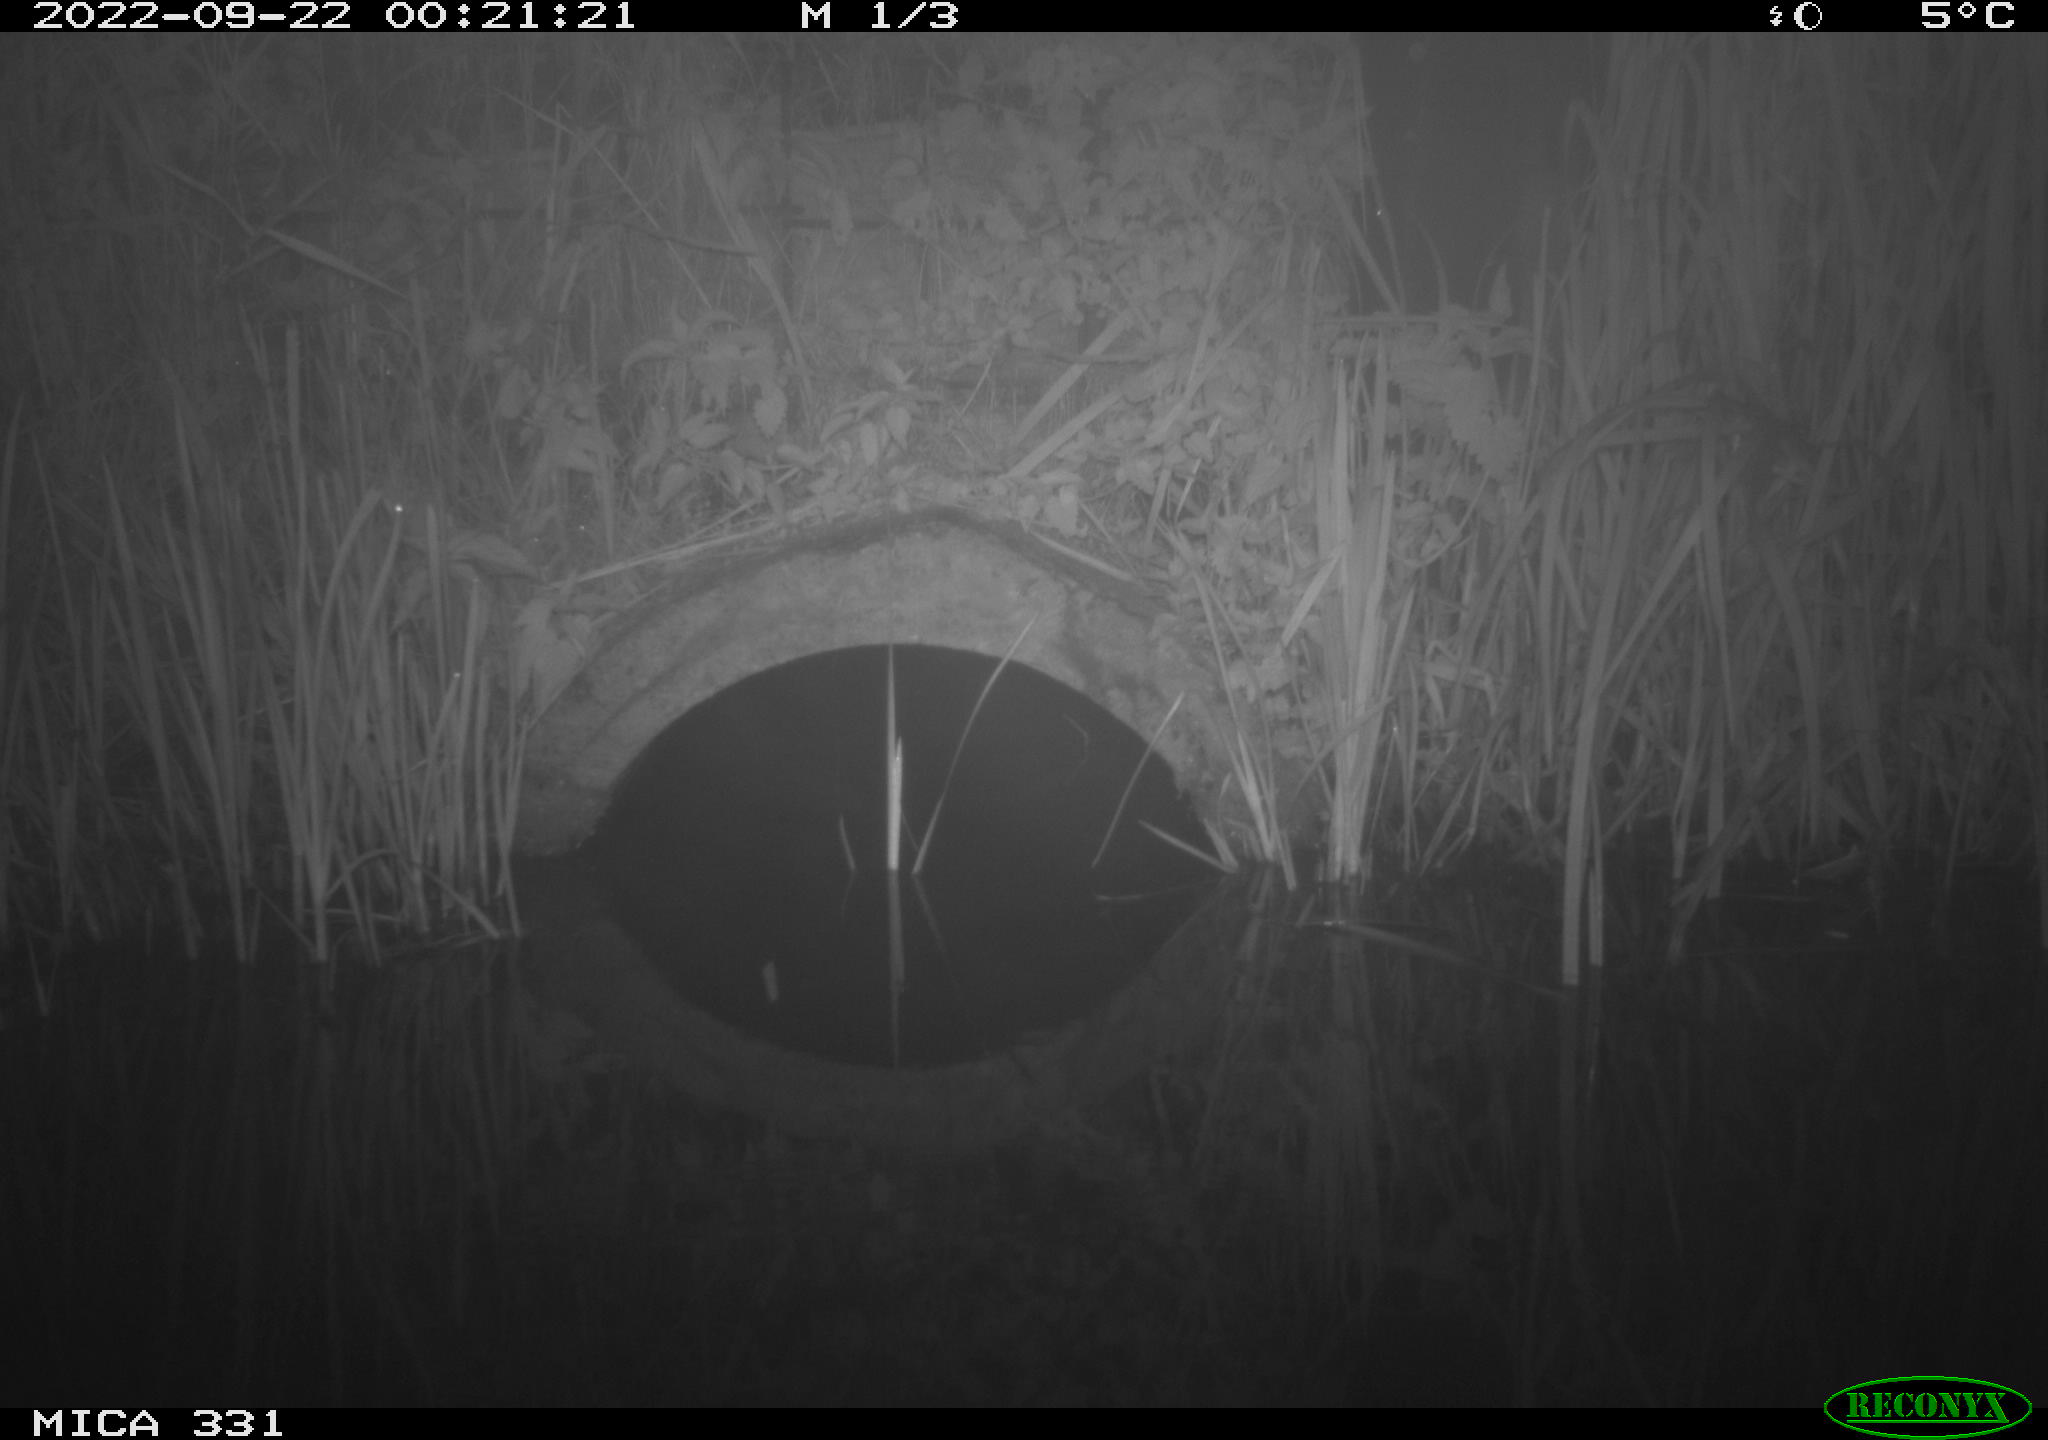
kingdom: Animalia
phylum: Chordata
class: Mammalia
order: Rodentia
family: Muridae
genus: Rattus
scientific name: Rattus norvegicus
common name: Brown rat
